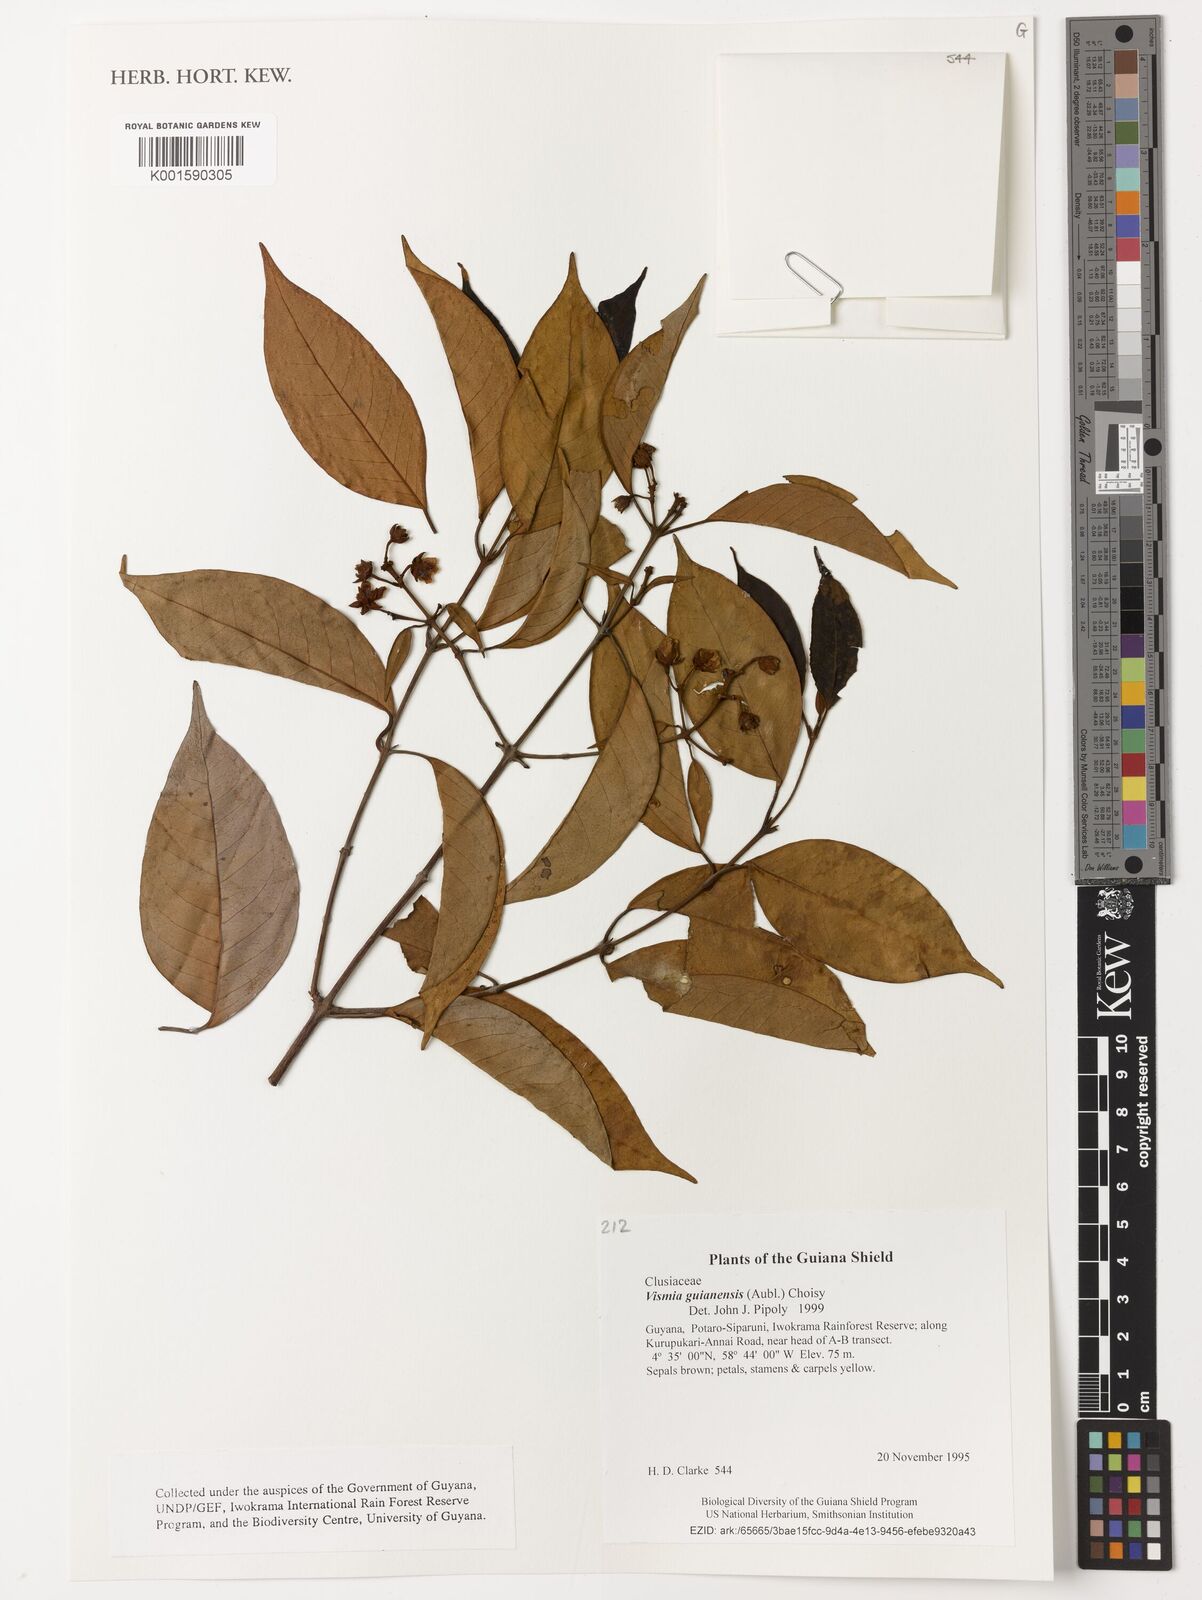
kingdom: Plantae
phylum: Tracheophyta
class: Magnoliopsida
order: Malpighiales
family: Hypericaceae
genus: Vismia
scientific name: Vismia guianensis
